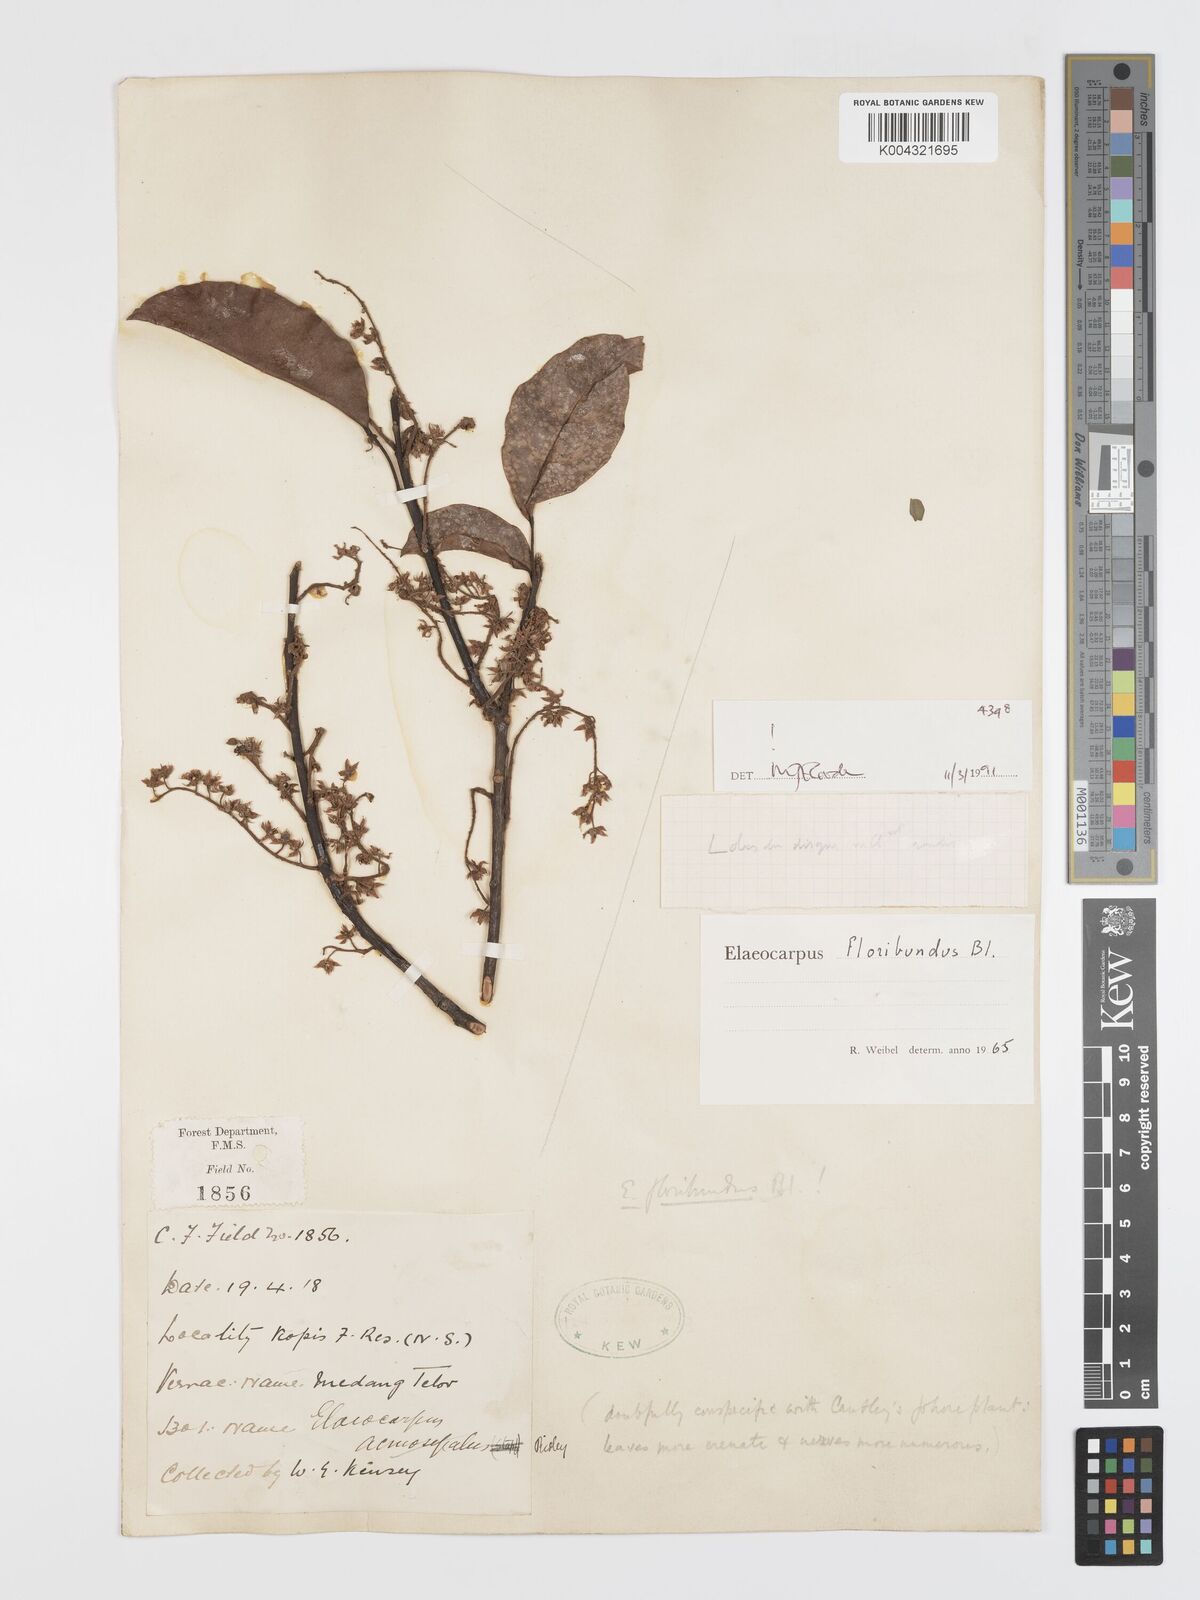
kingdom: Plantae
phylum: Tracheophyta
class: Magnoliopsida
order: Oxalidales
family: Elaeocarpaceae
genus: Elaeocarpus
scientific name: Elaeocarpus floribundus
